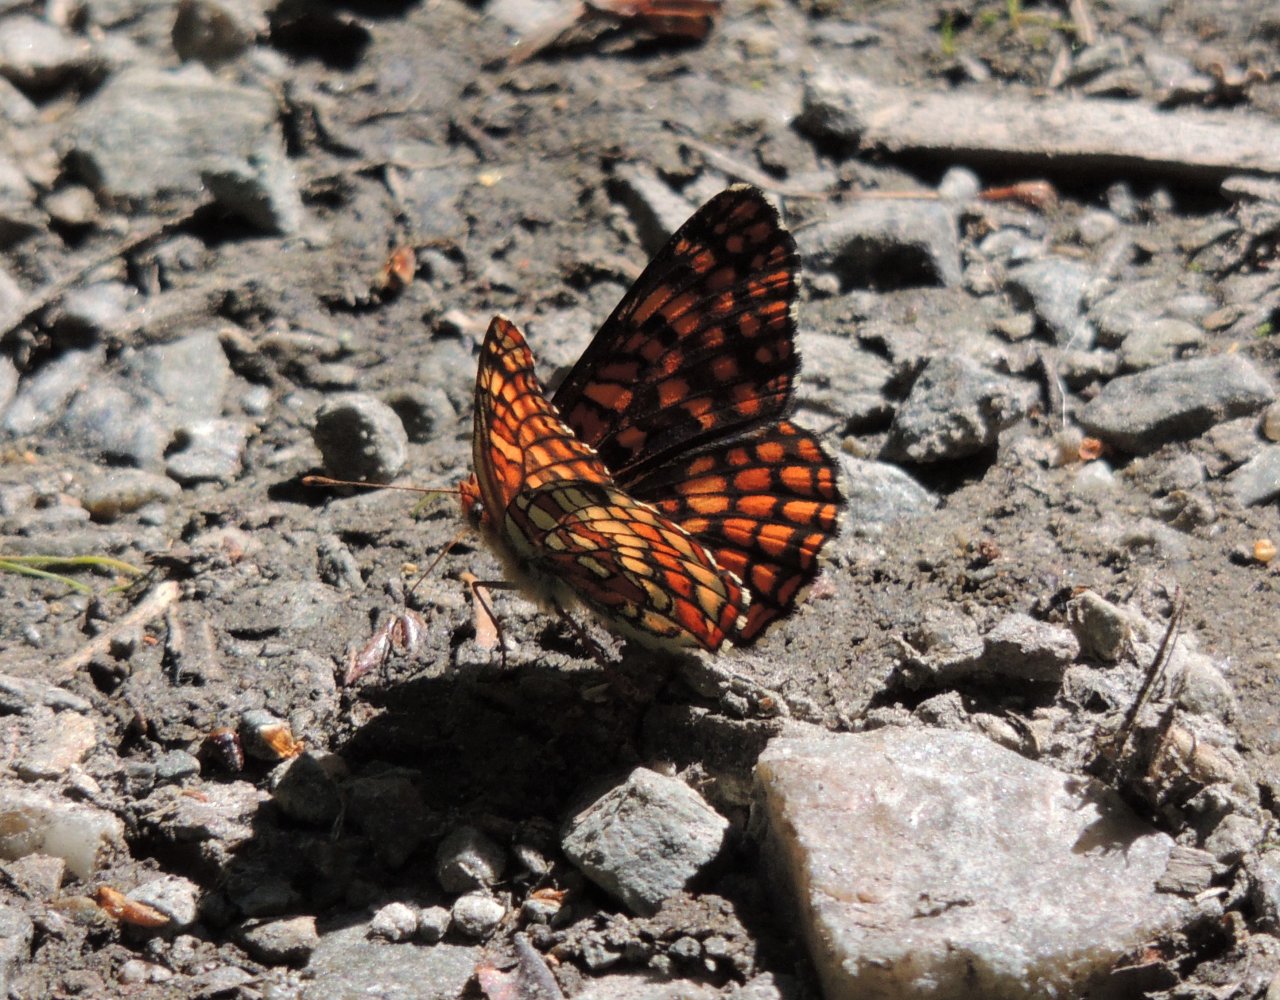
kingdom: Animalia
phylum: Arthropoda
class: Insecta
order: Lepidoptera
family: Nymphalidae
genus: Chlosyne
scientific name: Chlosyne palla
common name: Northern Checkerspot
